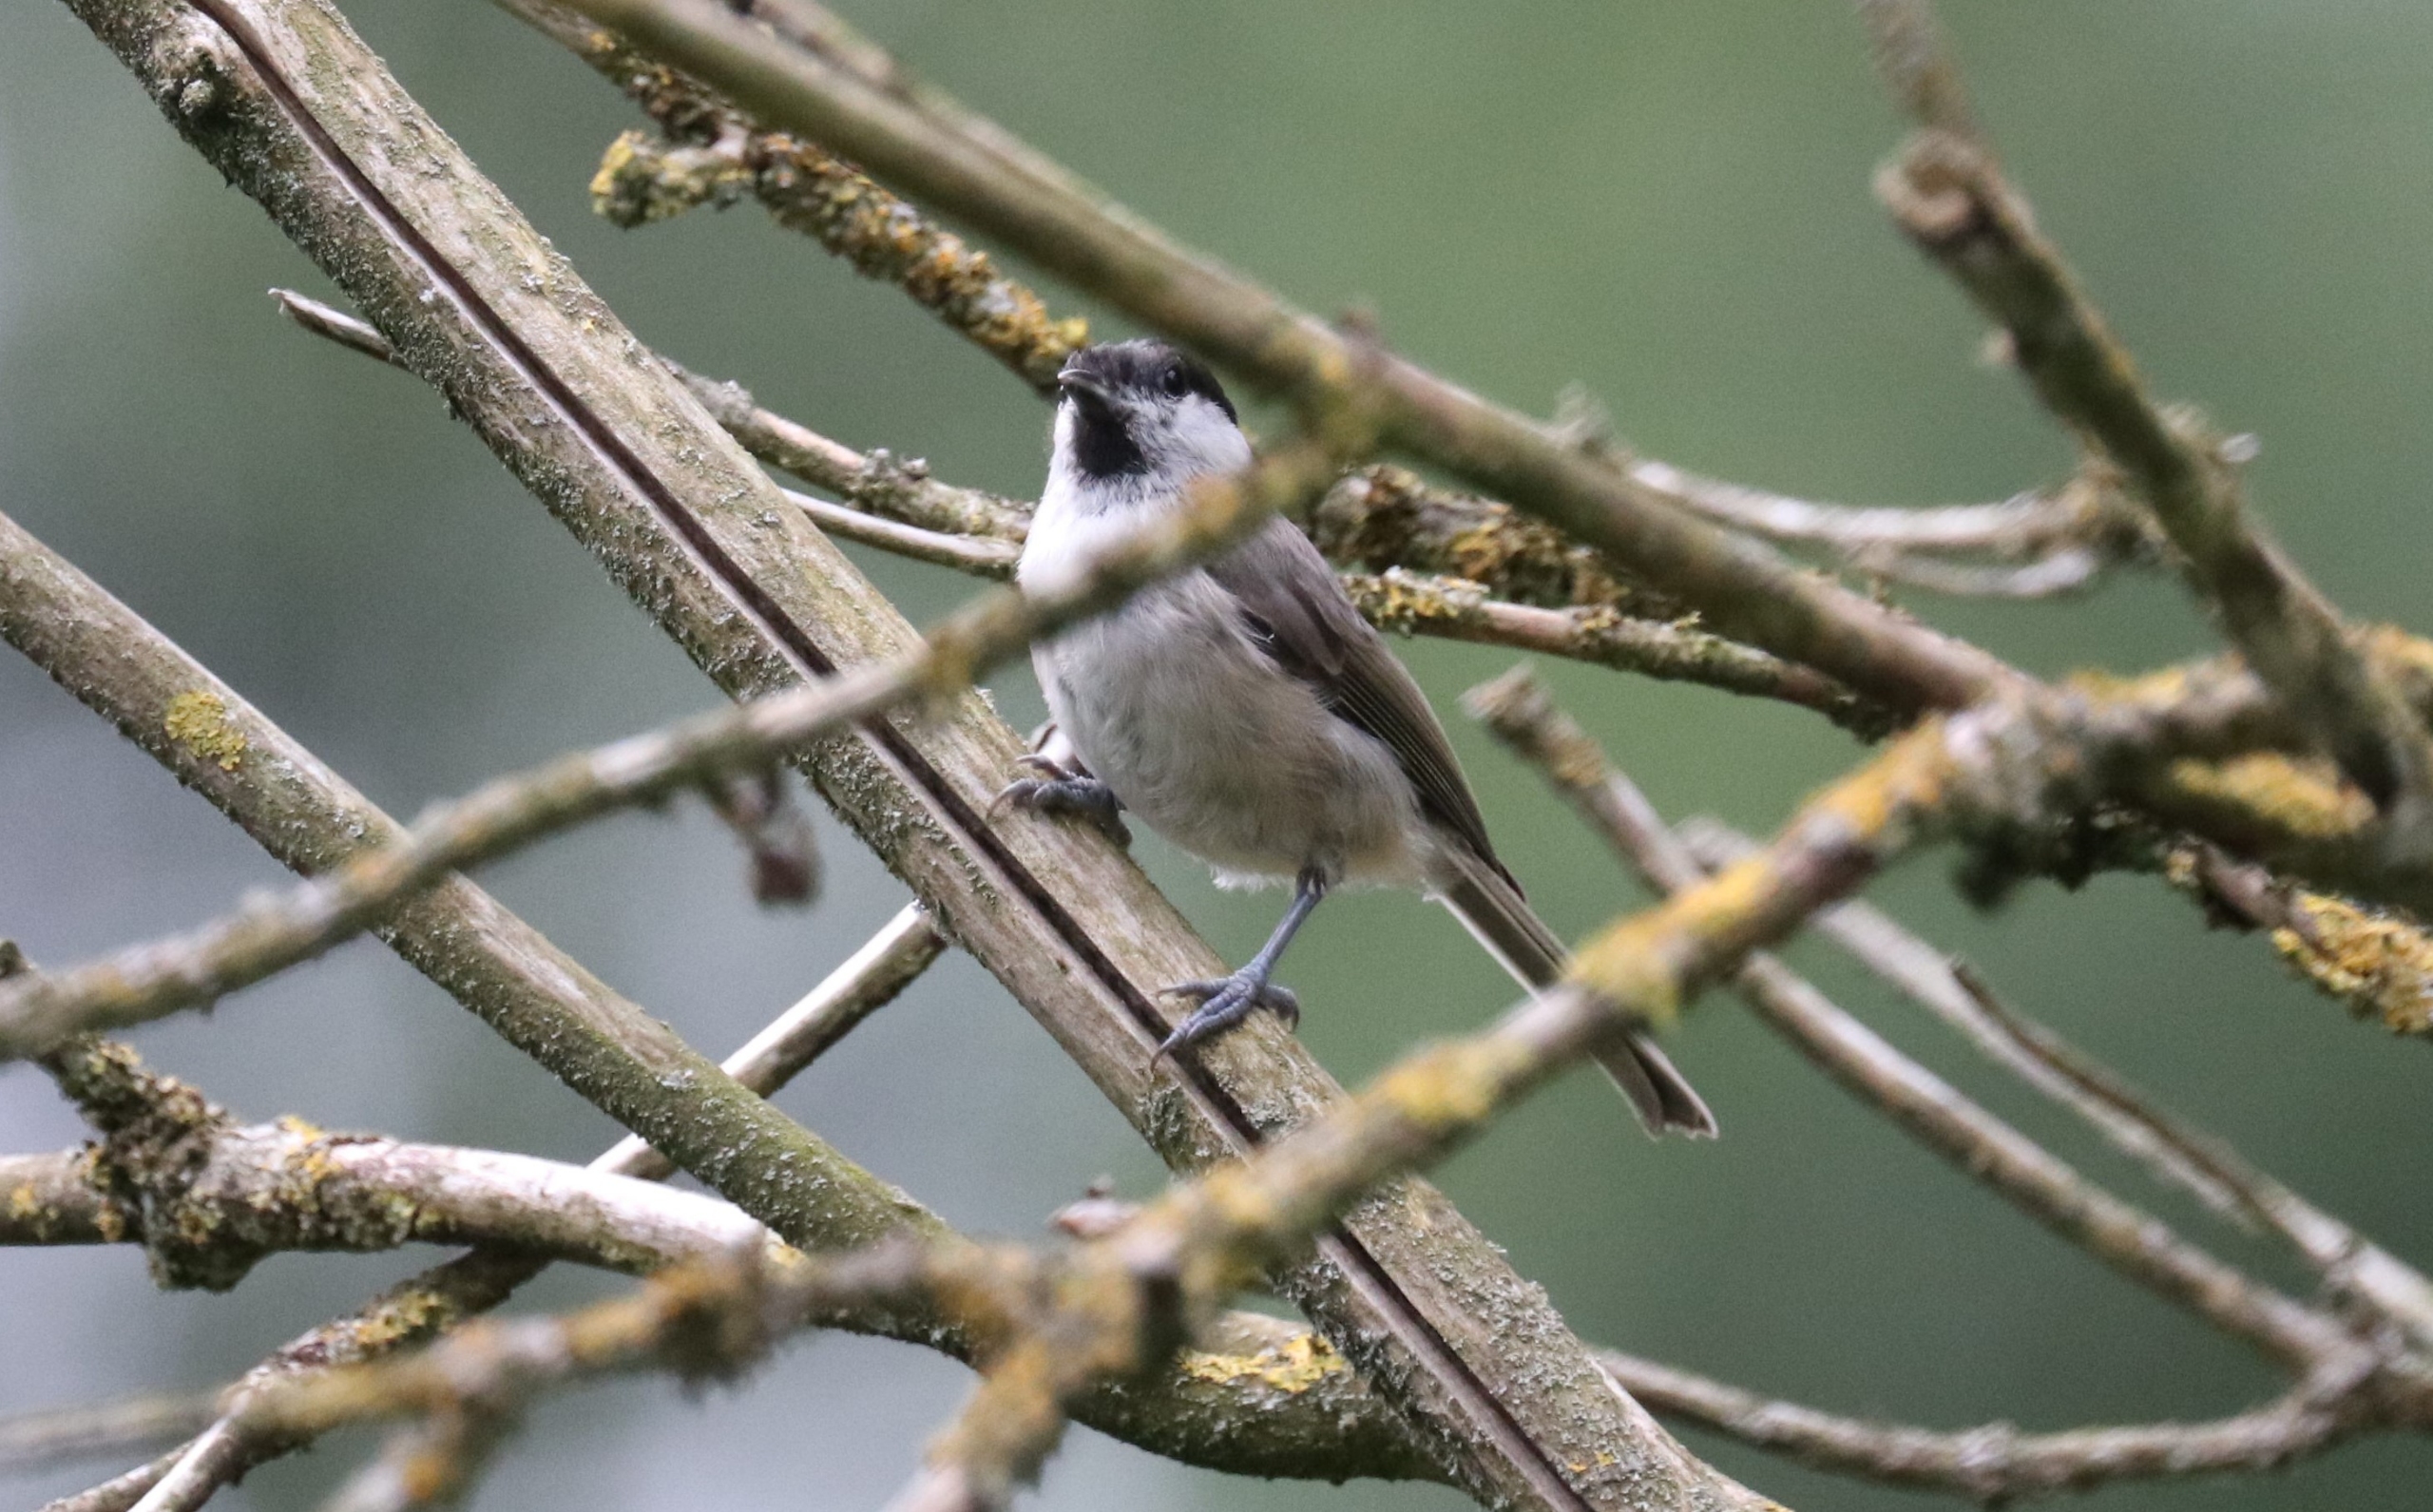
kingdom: Animalia
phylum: Chordata
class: Aves
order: Passeriformes
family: Paridae
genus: Poecile
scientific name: Poecile palustris
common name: Sumpmejse
